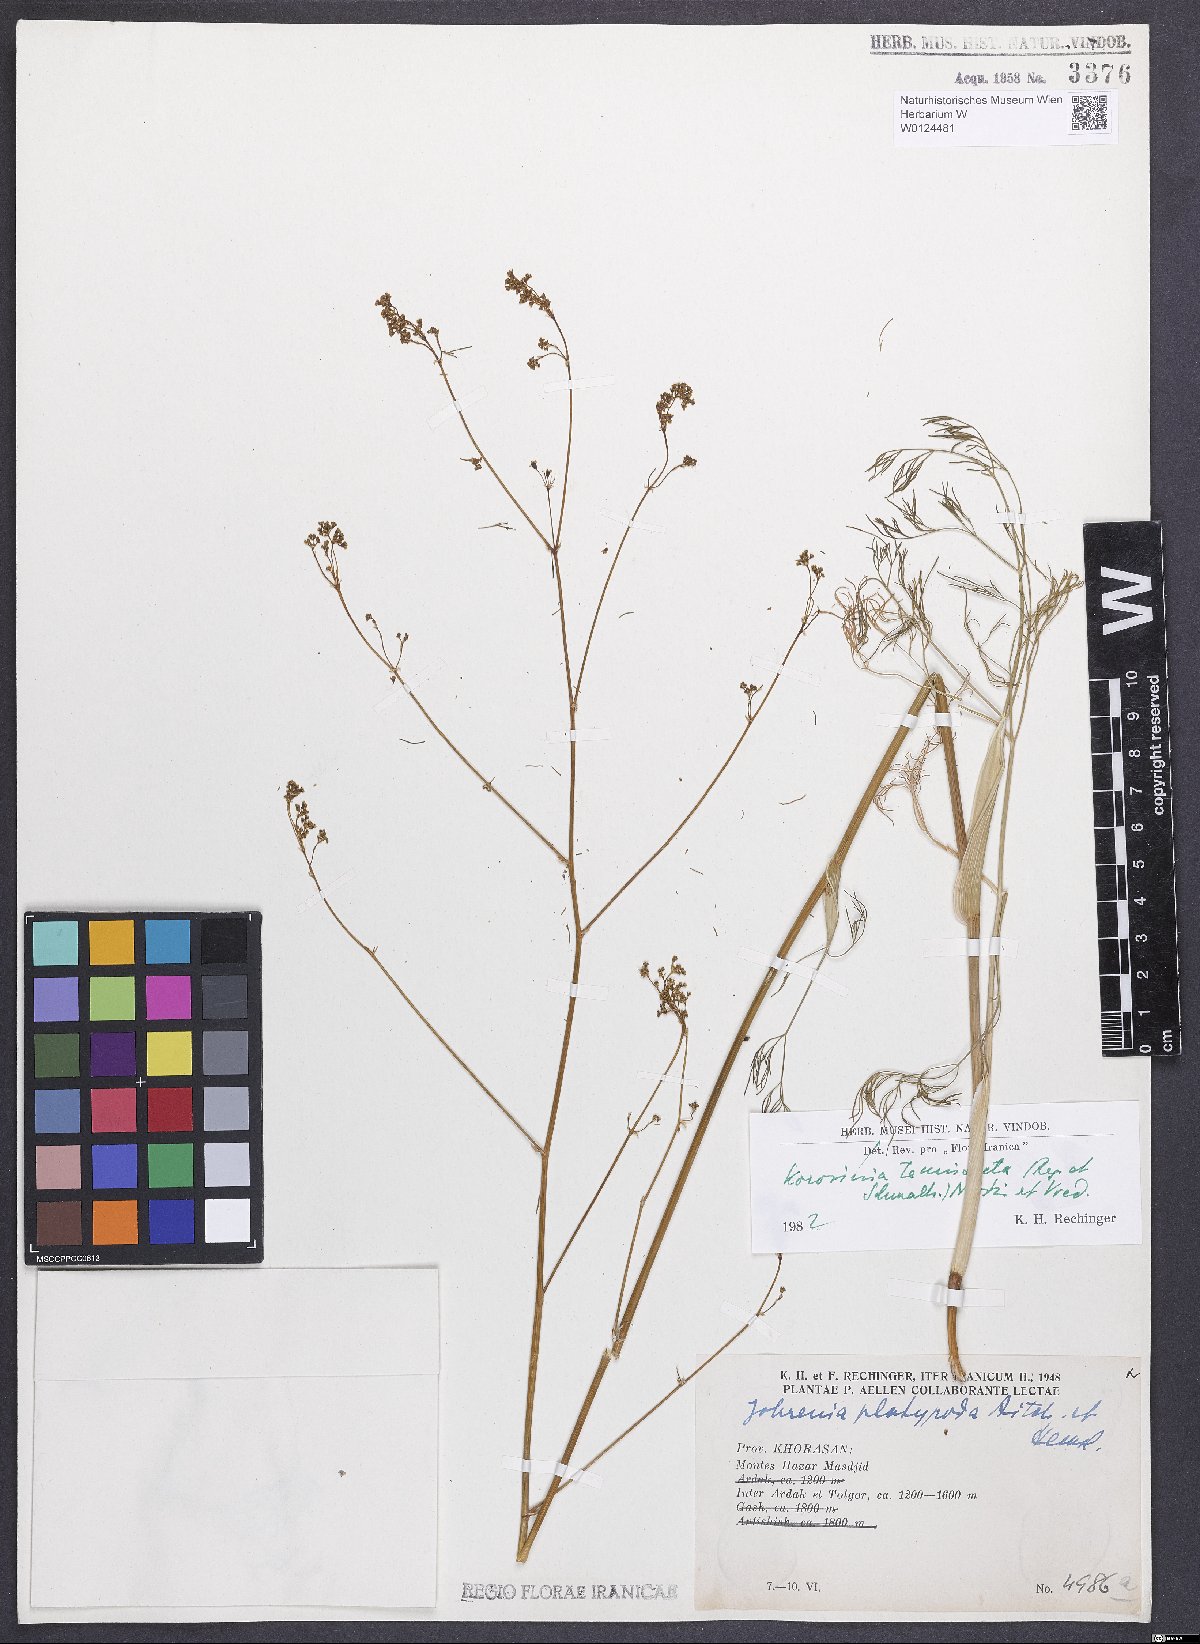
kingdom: Plantae
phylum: Tracheophyta
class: Magnoliopsida
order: Apiales
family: Apiaceae
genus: Galagania
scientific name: Galagania tenuisecta
